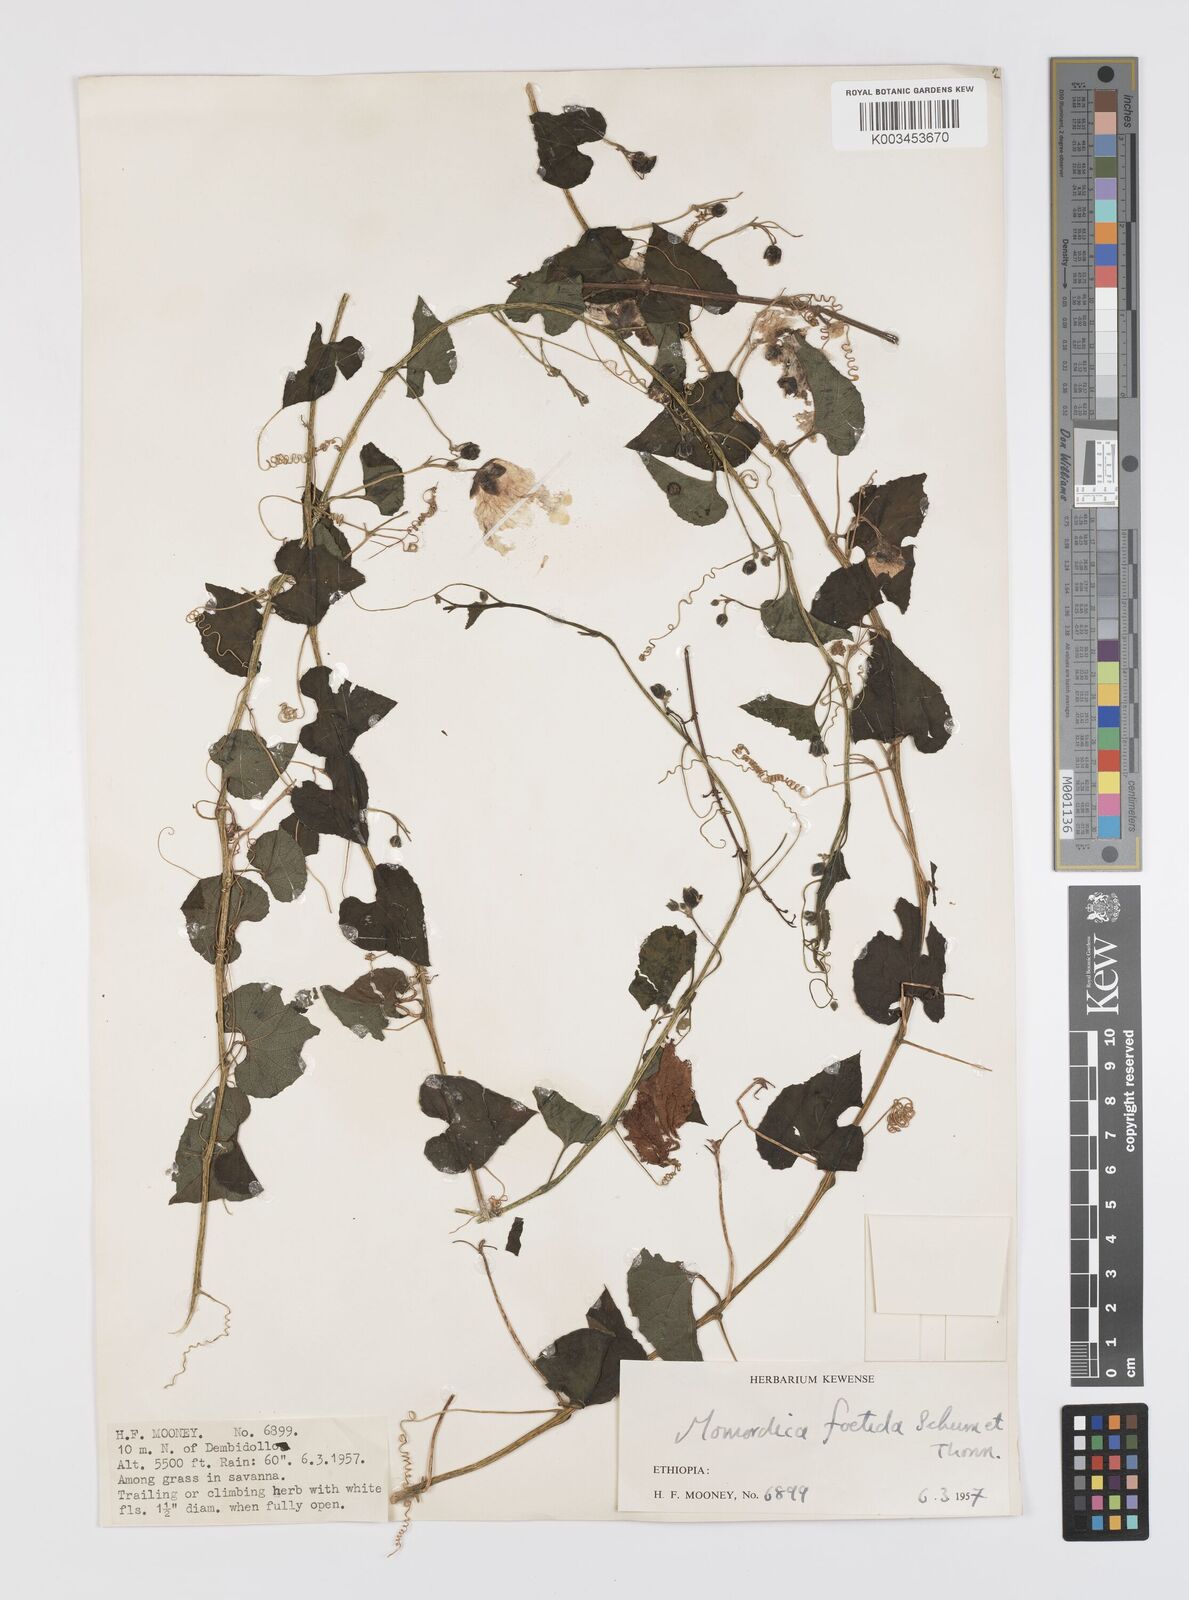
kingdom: Plantae
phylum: Tracheophyta
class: Magnoliopsida
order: Cucurbitales
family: Cucurbitaceae
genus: Momordica
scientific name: Momordica foetida
